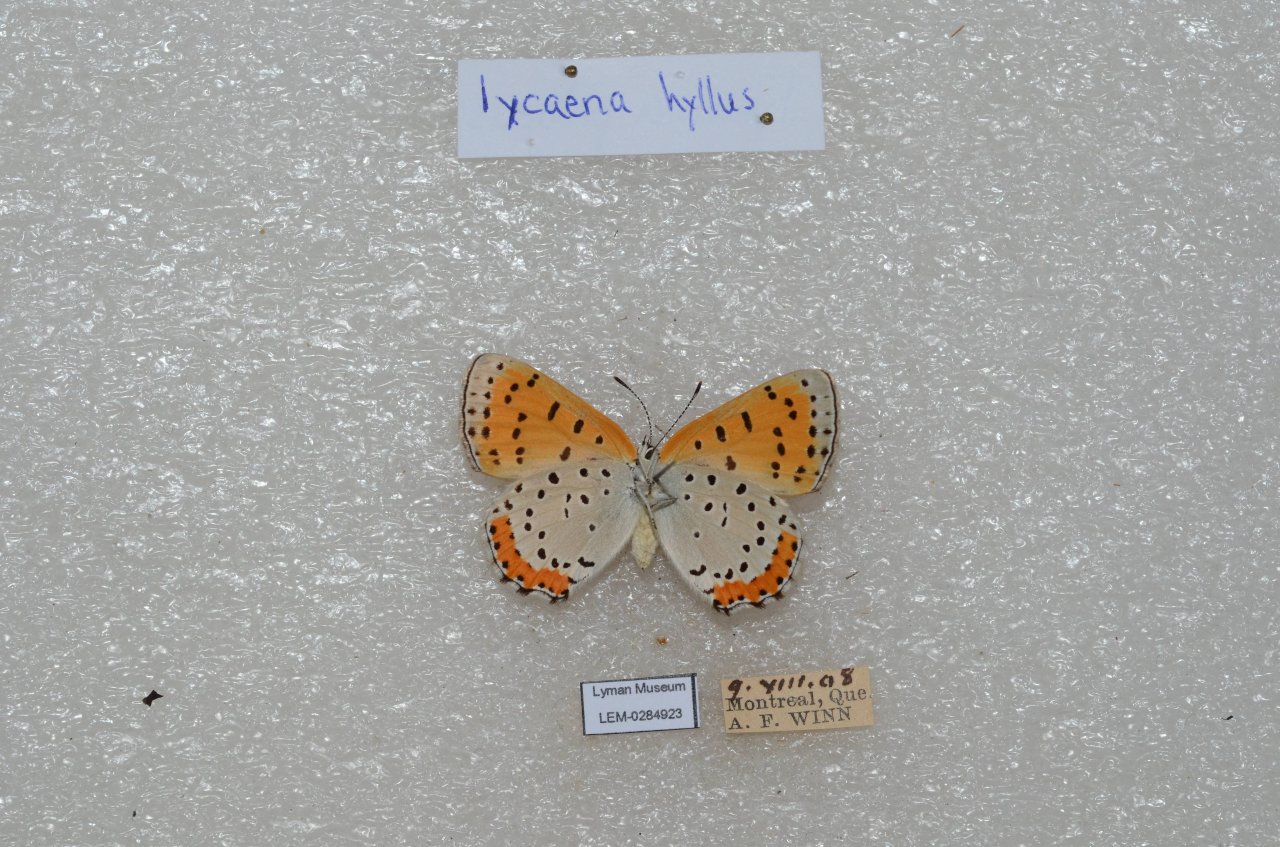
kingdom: Animalia
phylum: Arthropoda
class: Insecta
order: Lepidoptera
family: Sesiidae
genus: Sesia
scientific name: Sesia Lycaena hyllus
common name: Bronze Copper
